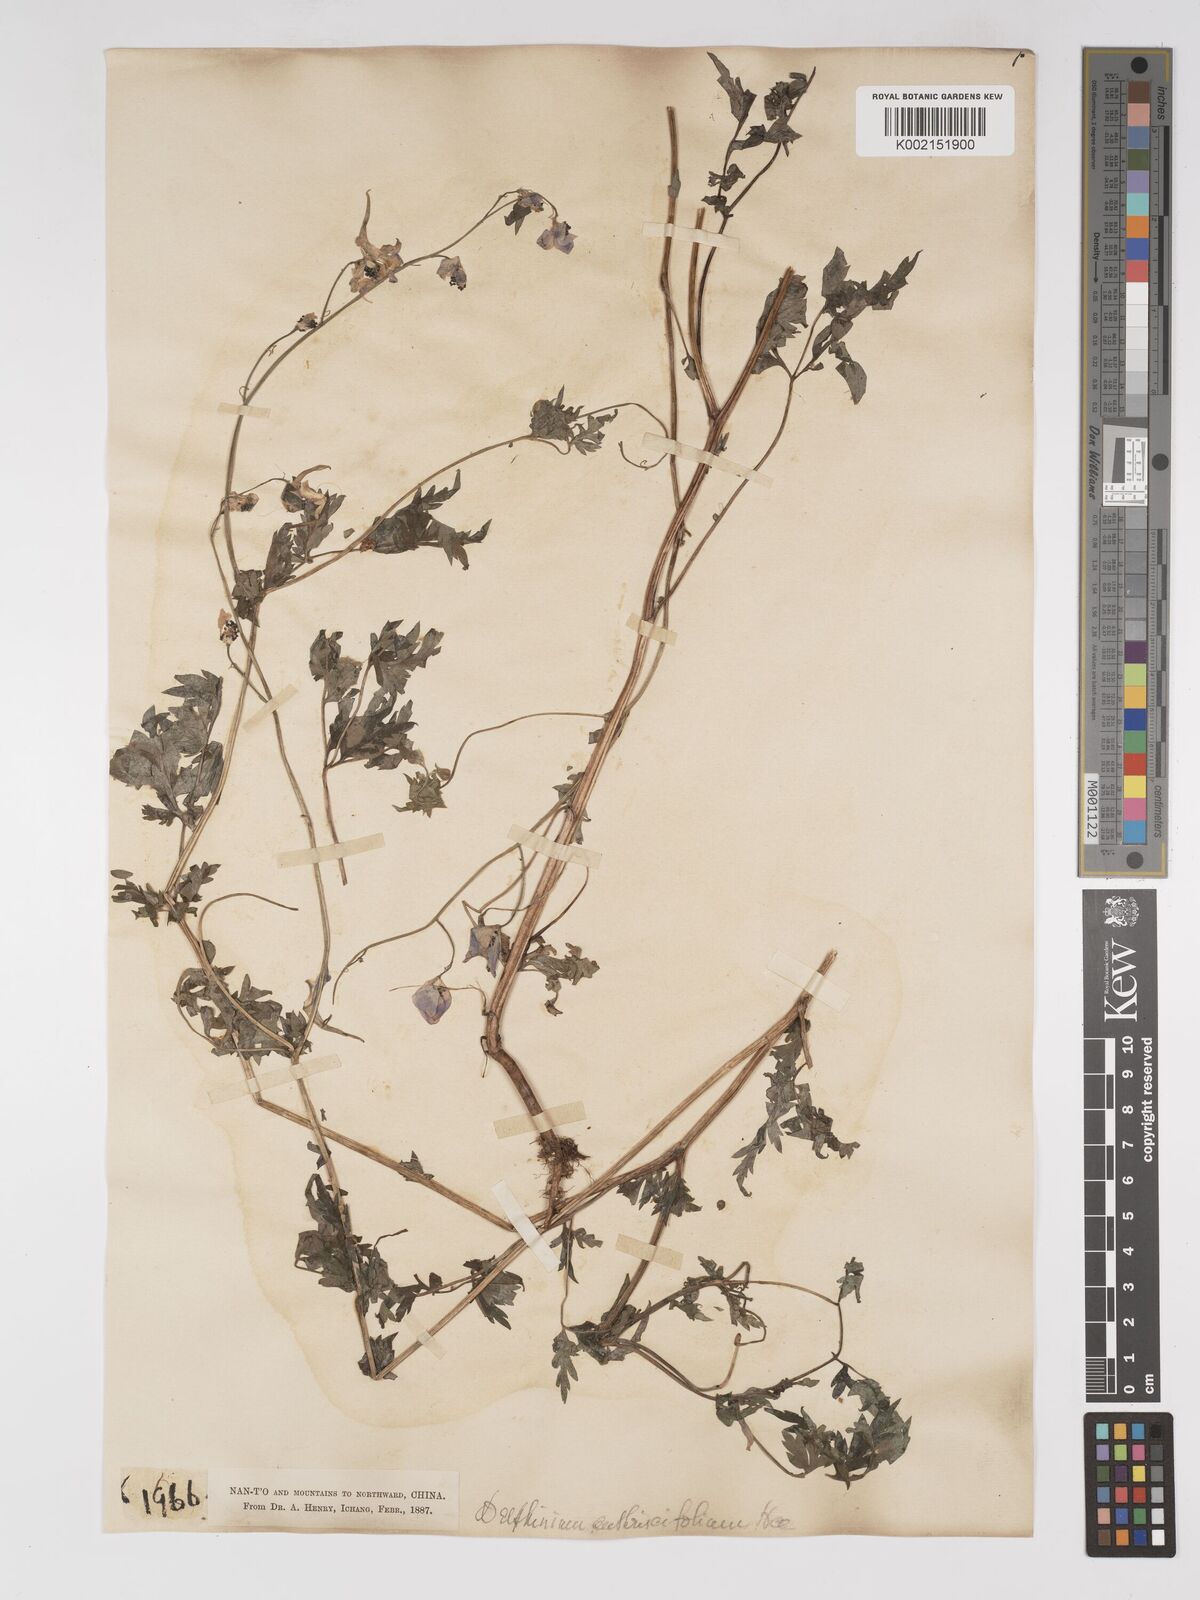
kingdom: Plantae
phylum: Tracheophyta
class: Magnoliopsida
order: Ranunculales
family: Ranunculaceae
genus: Delphinium
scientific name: Delphinium anthriscifolium
